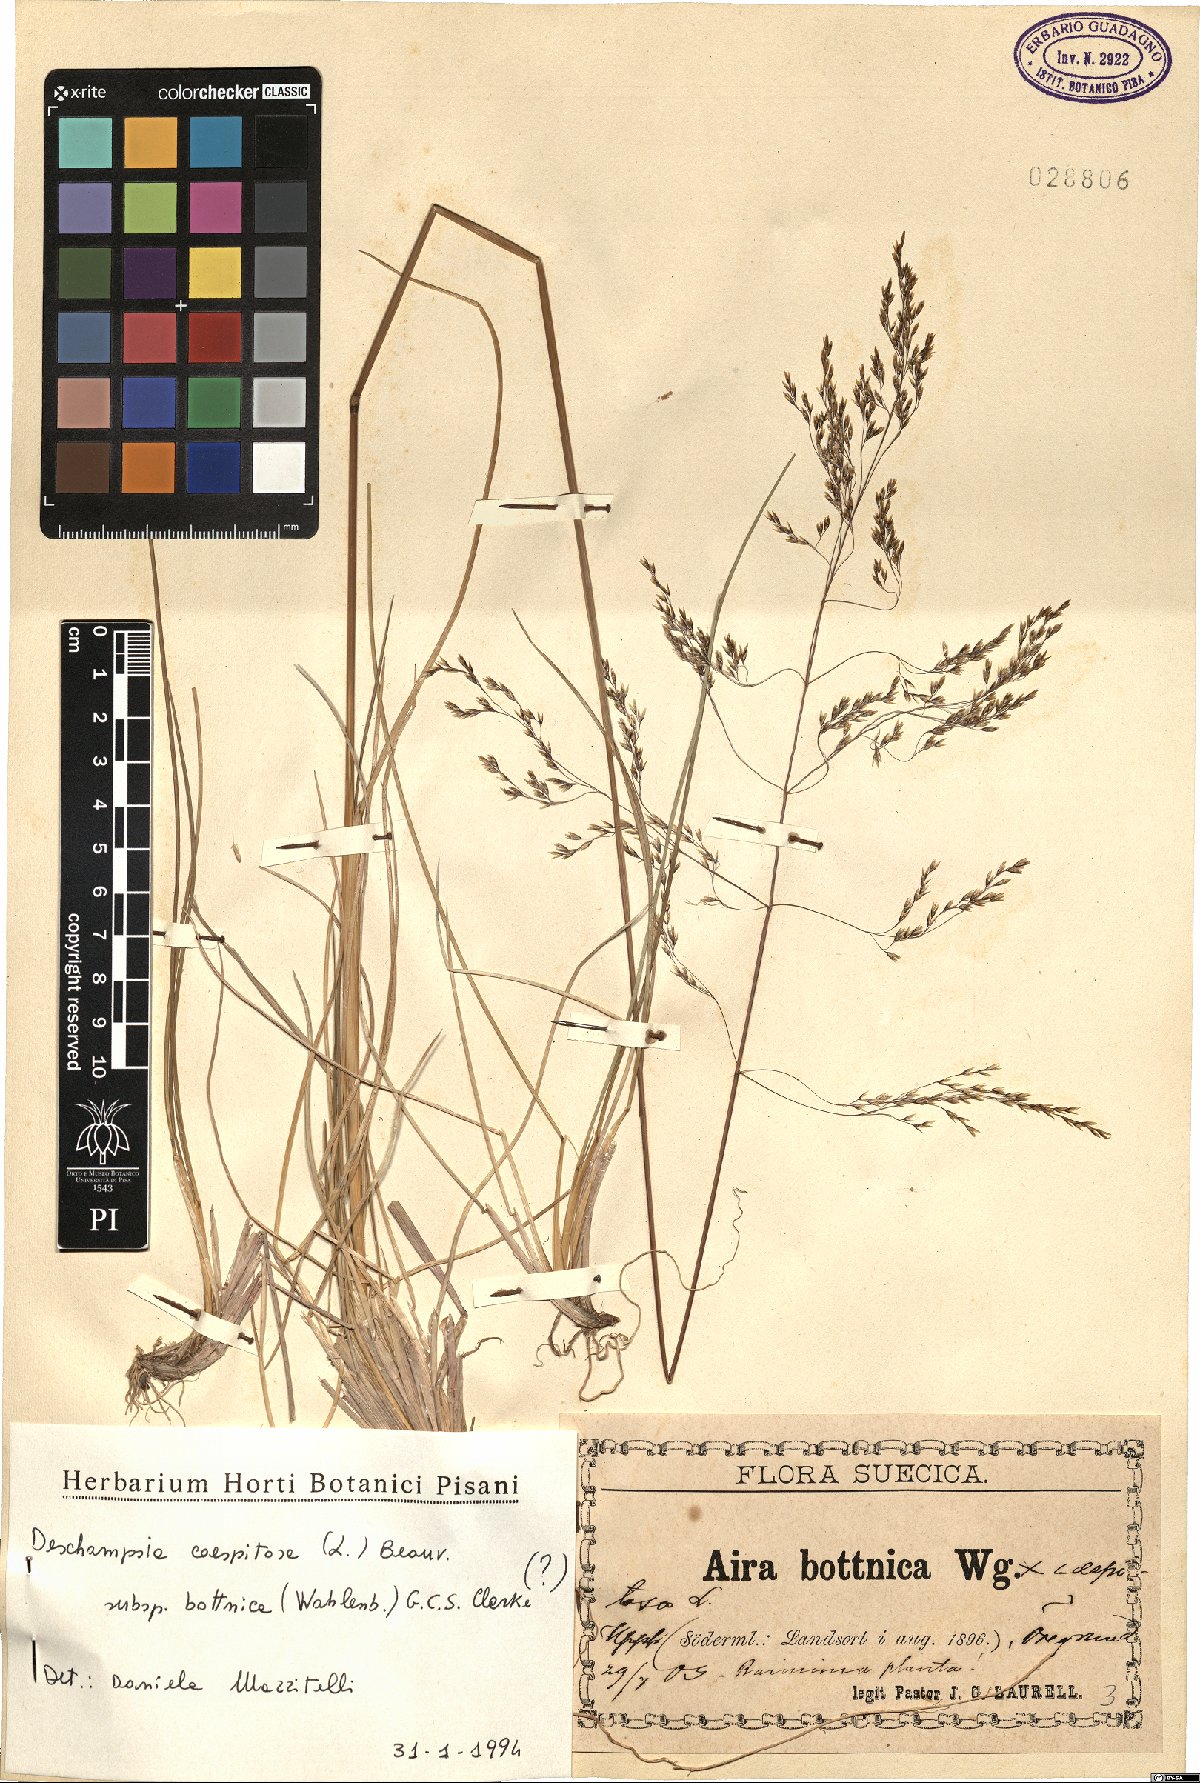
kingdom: Plantae
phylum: Tracheophyta
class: Liliopsida
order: Poales
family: Poaceae
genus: Deschampsia
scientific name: Deschampsia cespitosa
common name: Tufted hair-grass
